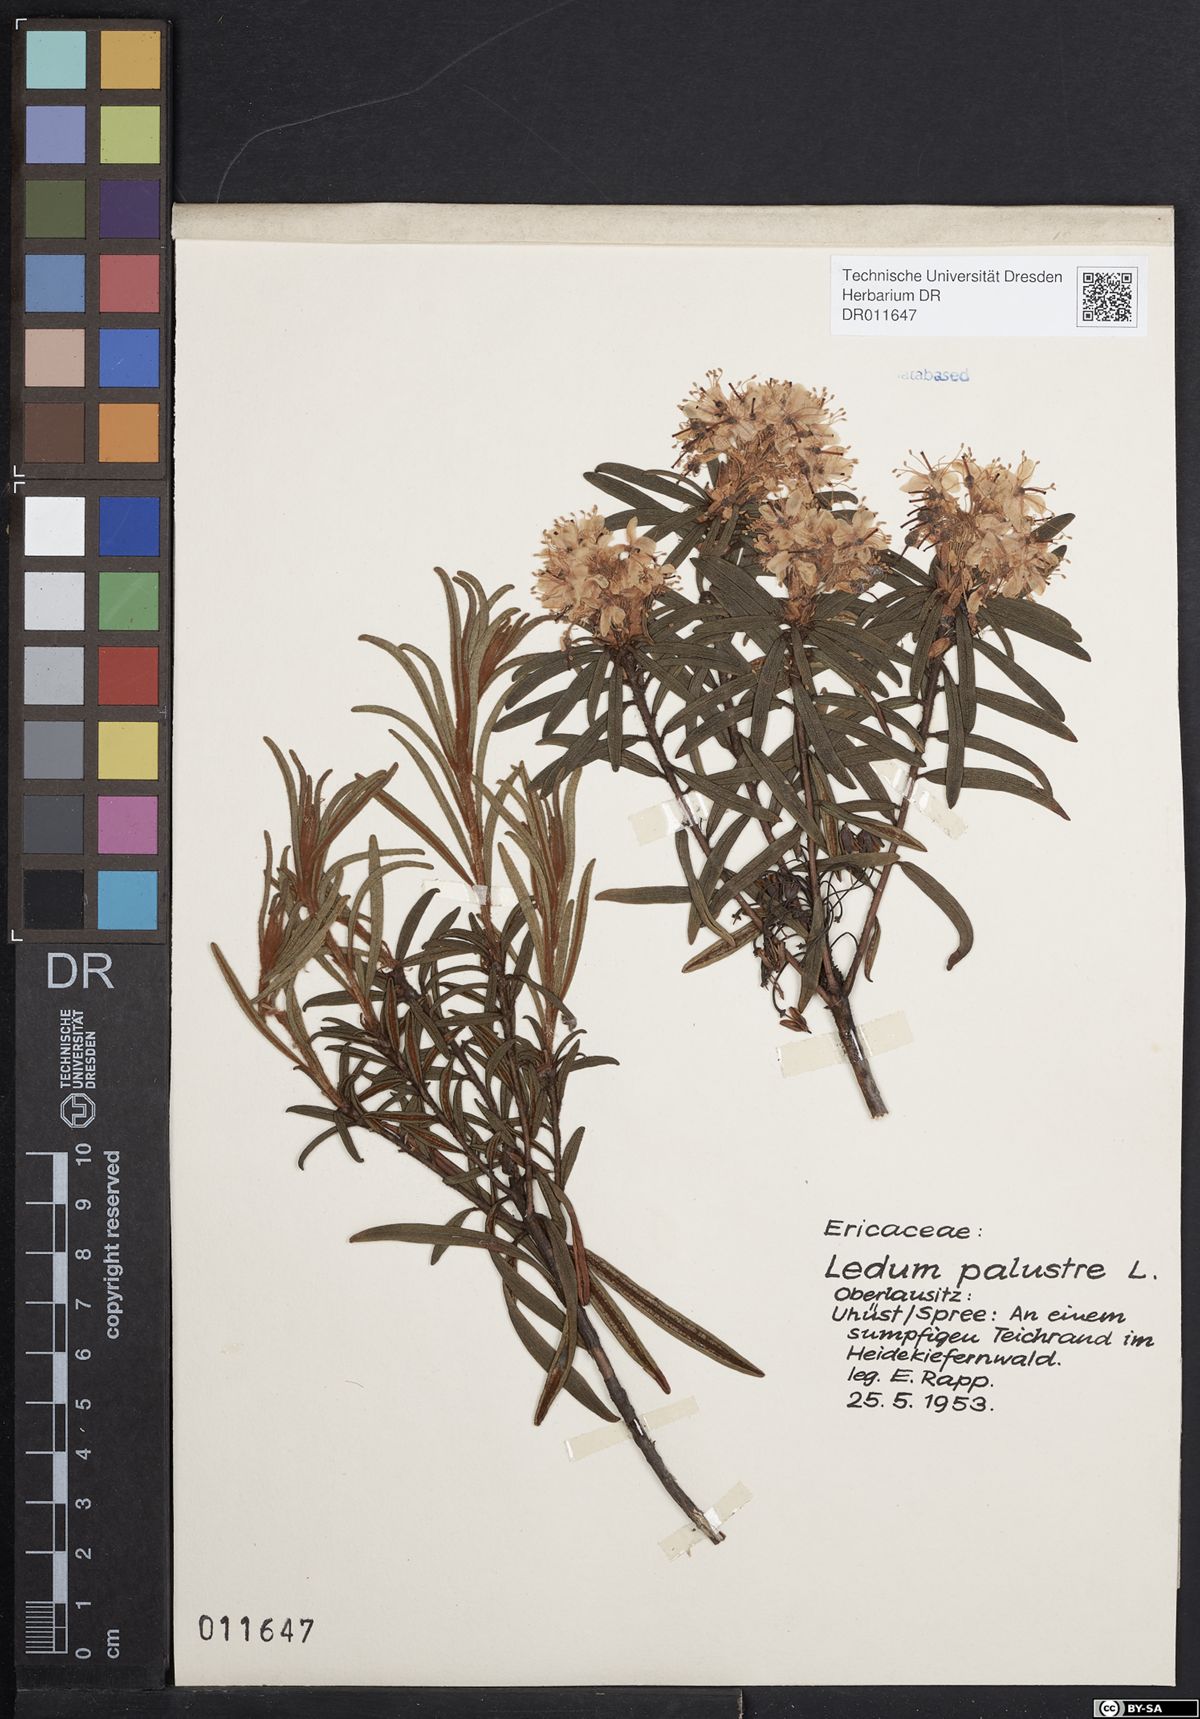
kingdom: Plantae
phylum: Tracheophyta
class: Magnoliopsida
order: Ericales
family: Ericaceae
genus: Rhododendron
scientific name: Rhododendron tomentosum
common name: Marsh labrador tea
